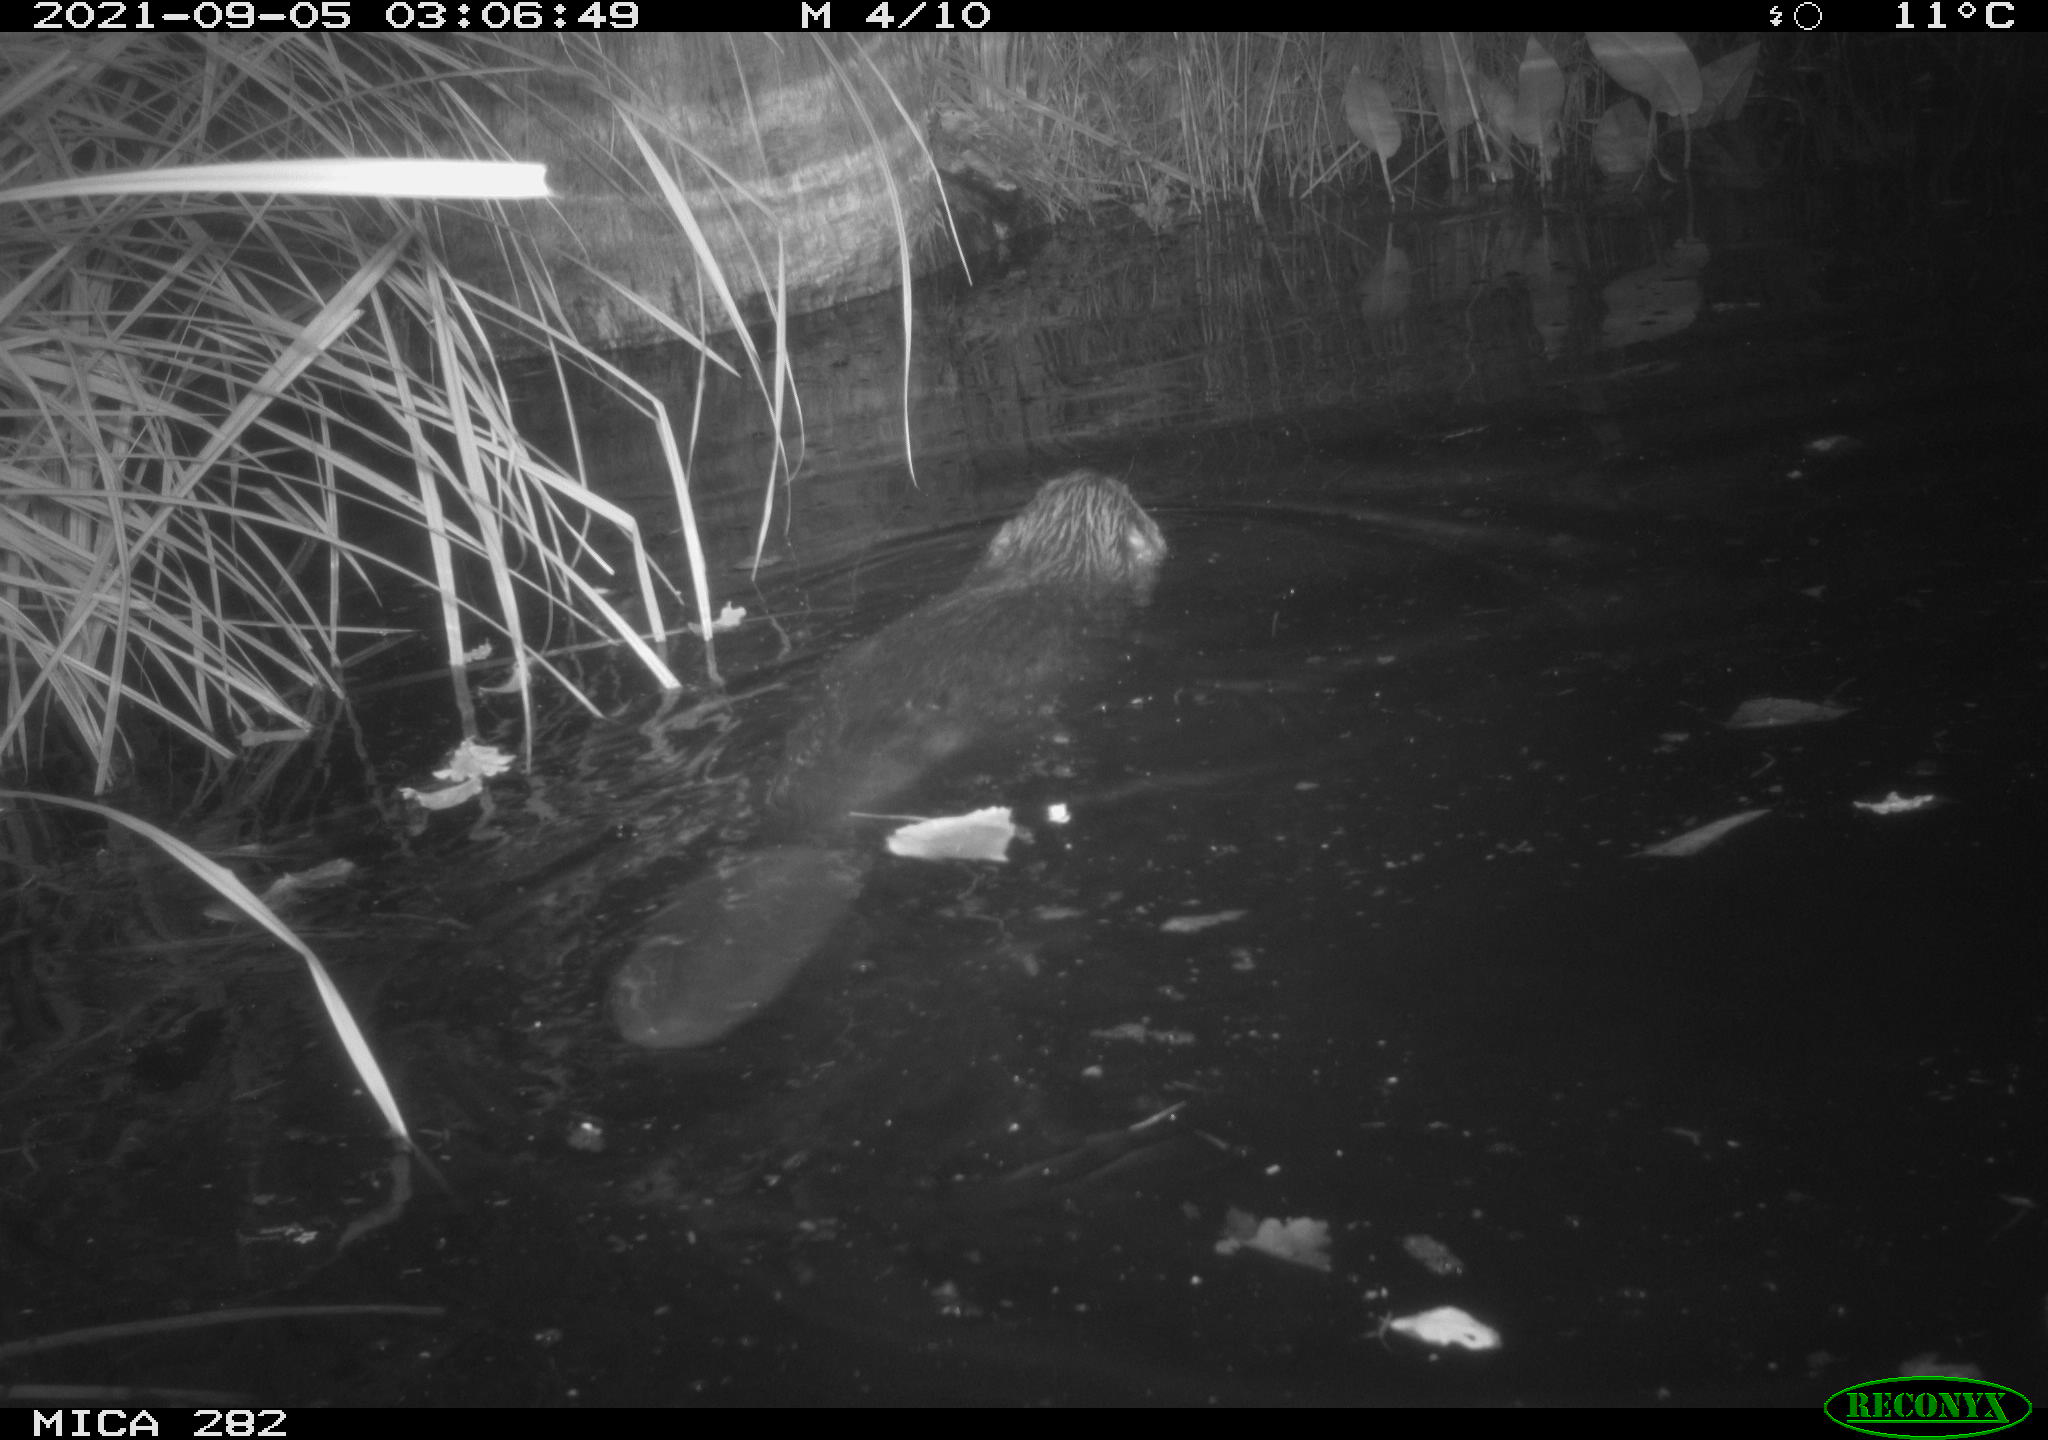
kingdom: Animalia
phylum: Chordata
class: Mammalia
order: Rodentia
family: Castoridae
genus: Castor
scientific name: Castor fiber
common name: Eurasian beaver
